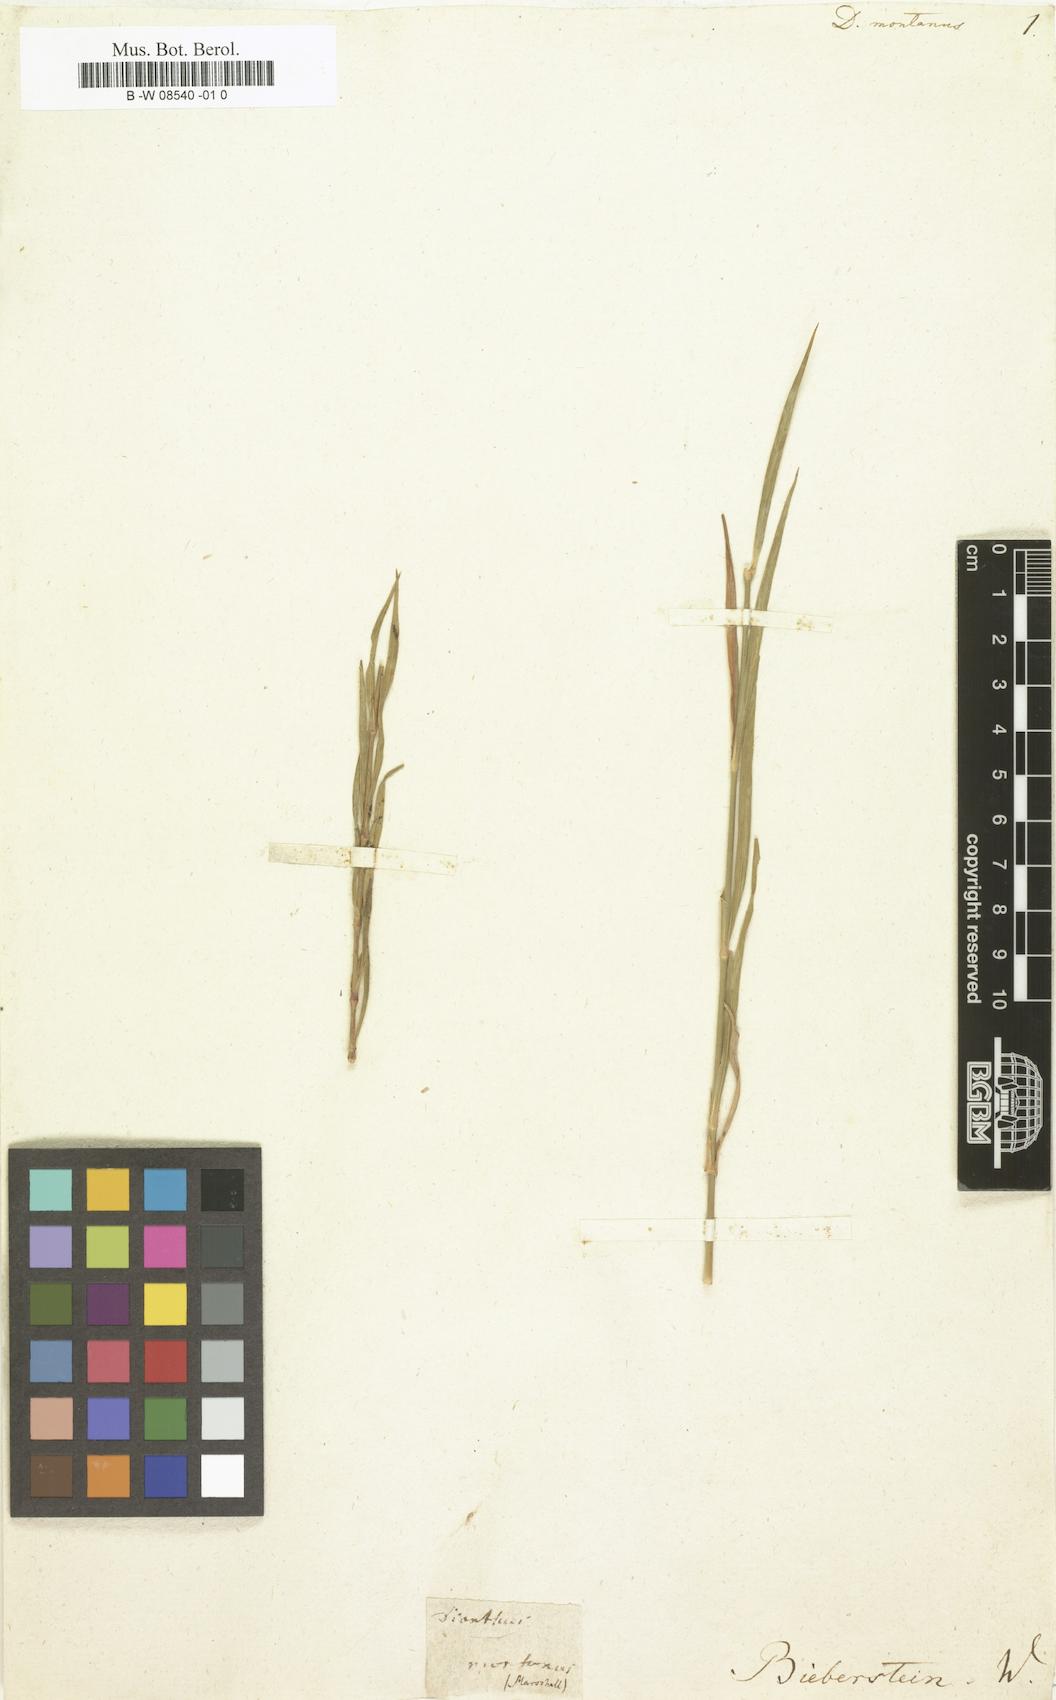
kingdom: Plantae
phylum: Tracheophyta
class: Magnoliopsida
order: Caryophyllales
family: Caryophyllaceae
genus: Dianthus
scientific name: Dianthus
